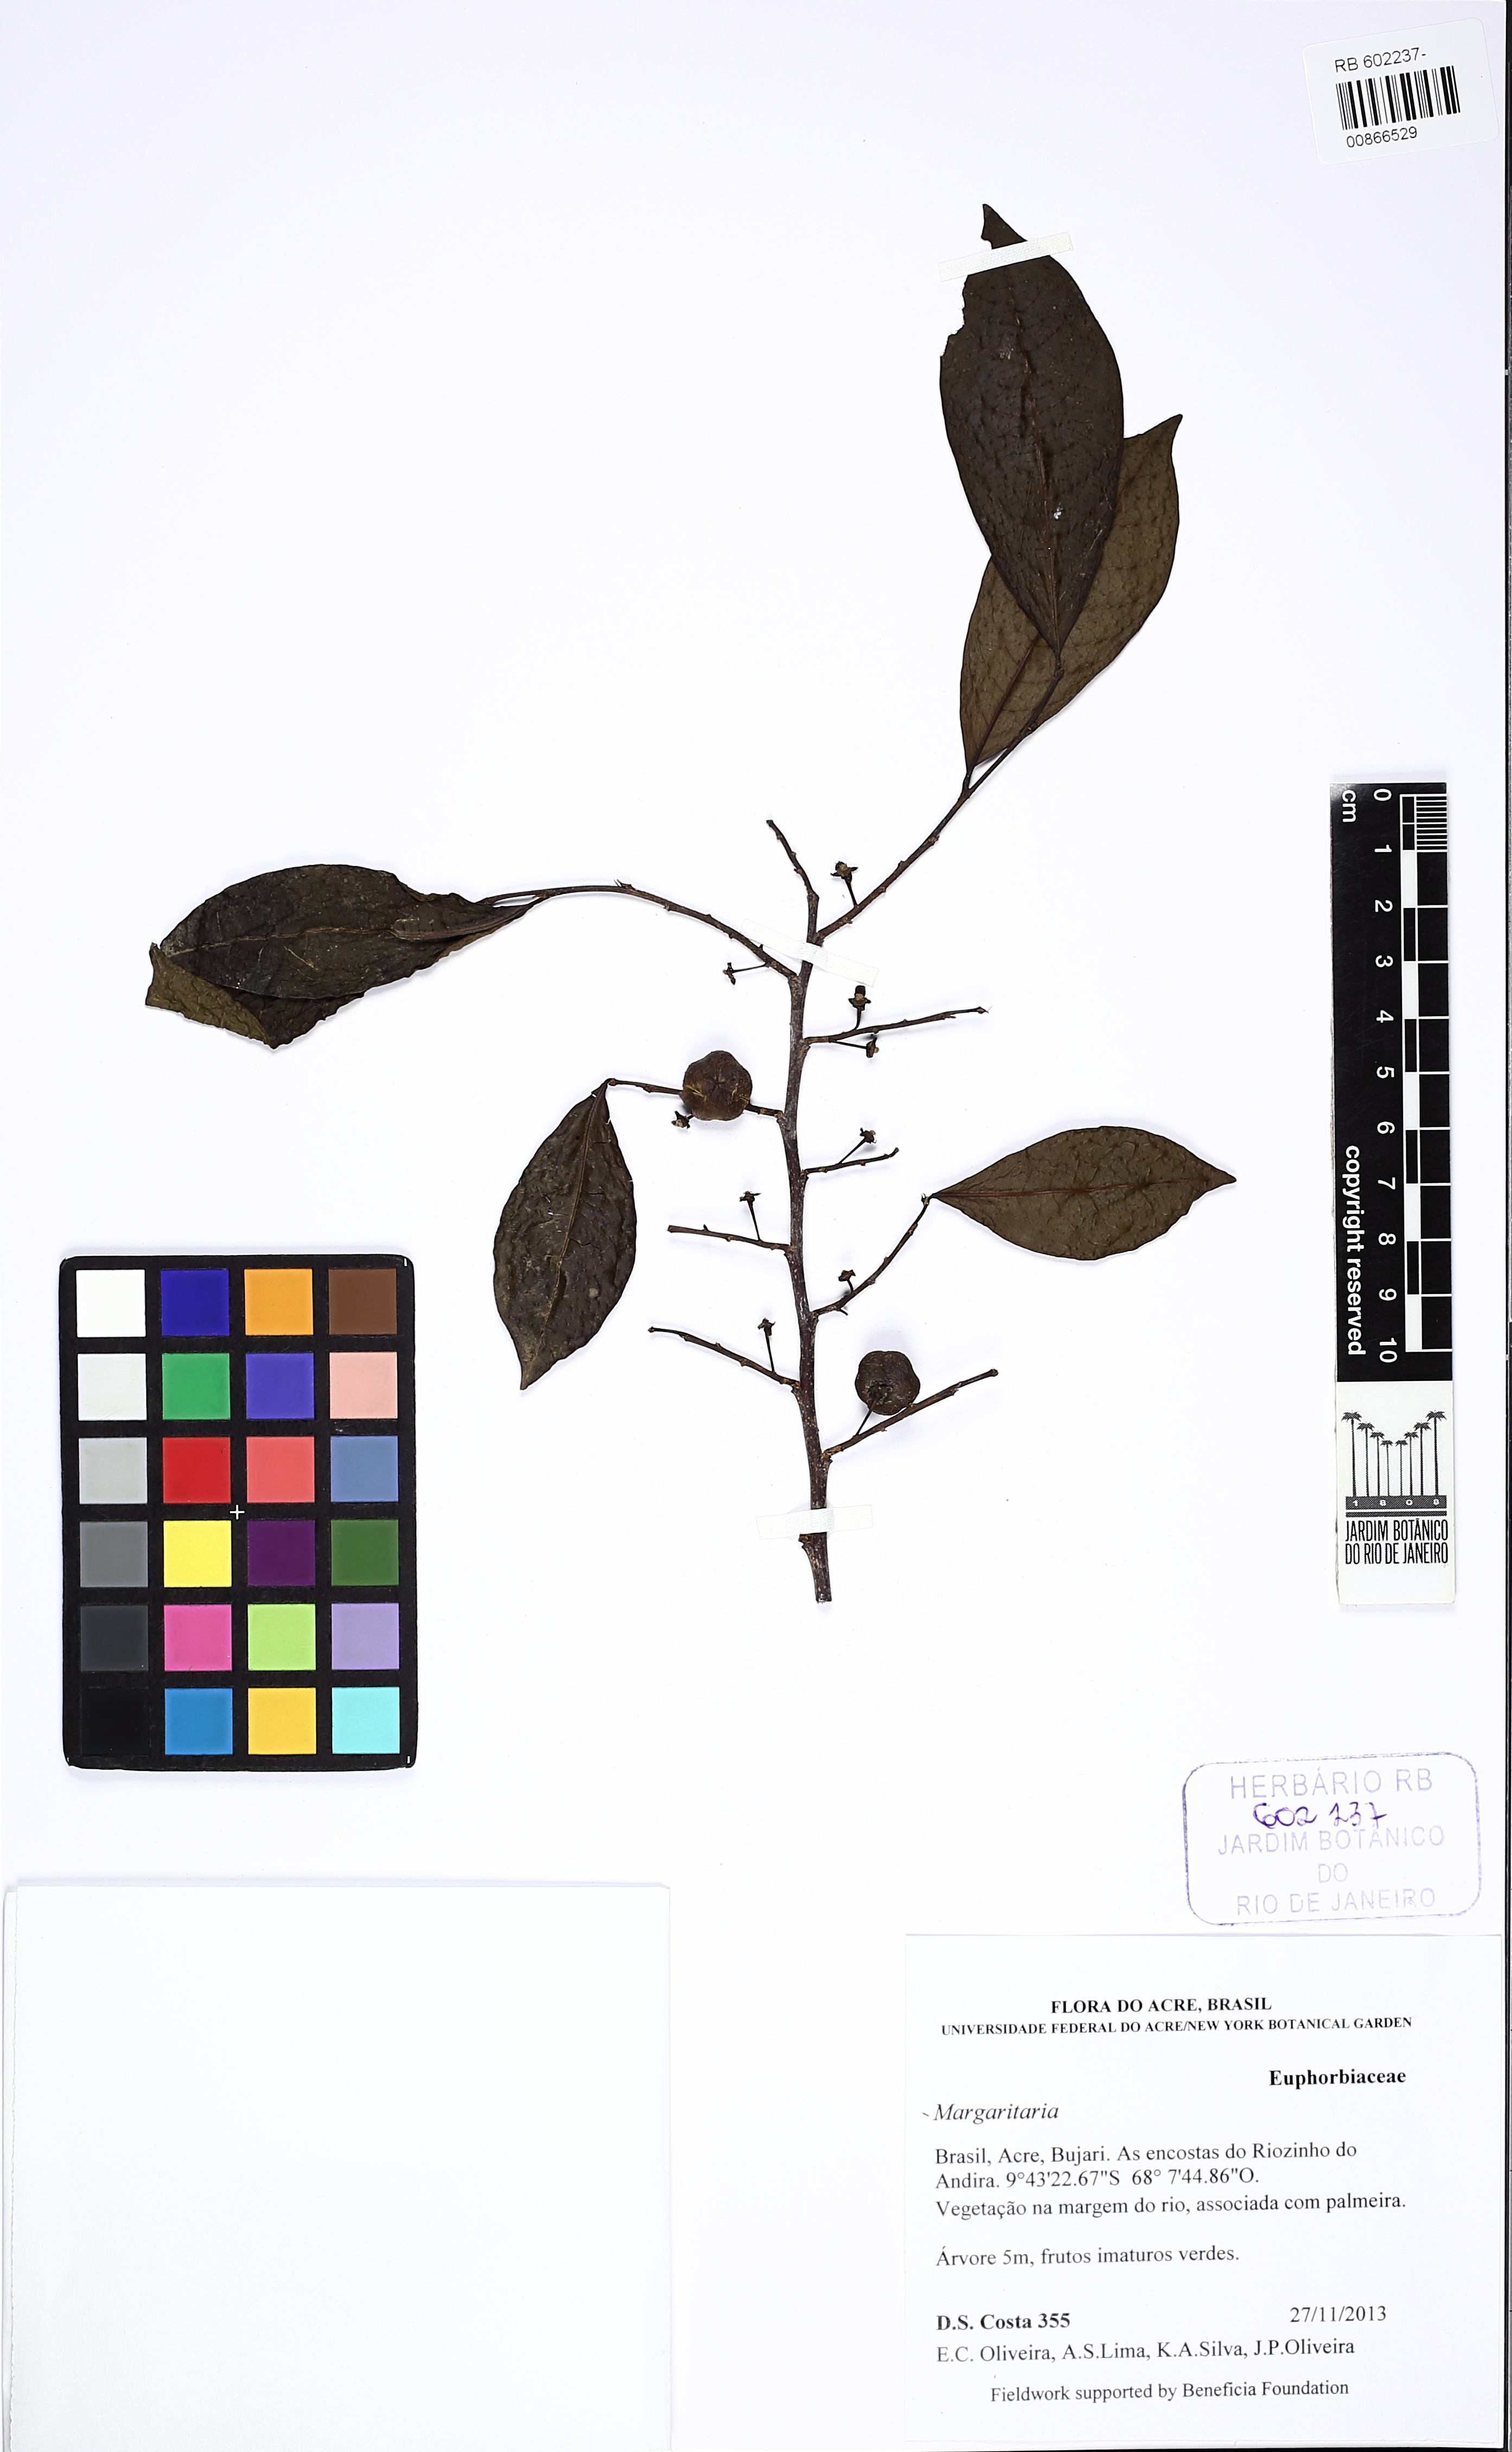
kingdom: Plantae
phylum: Tracheophyta
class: Magnoliopsida
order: Malpighiales
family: Phyllanthaceae
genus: Margaritaria
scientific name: Margaritaria nobilis
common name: Goose berry
